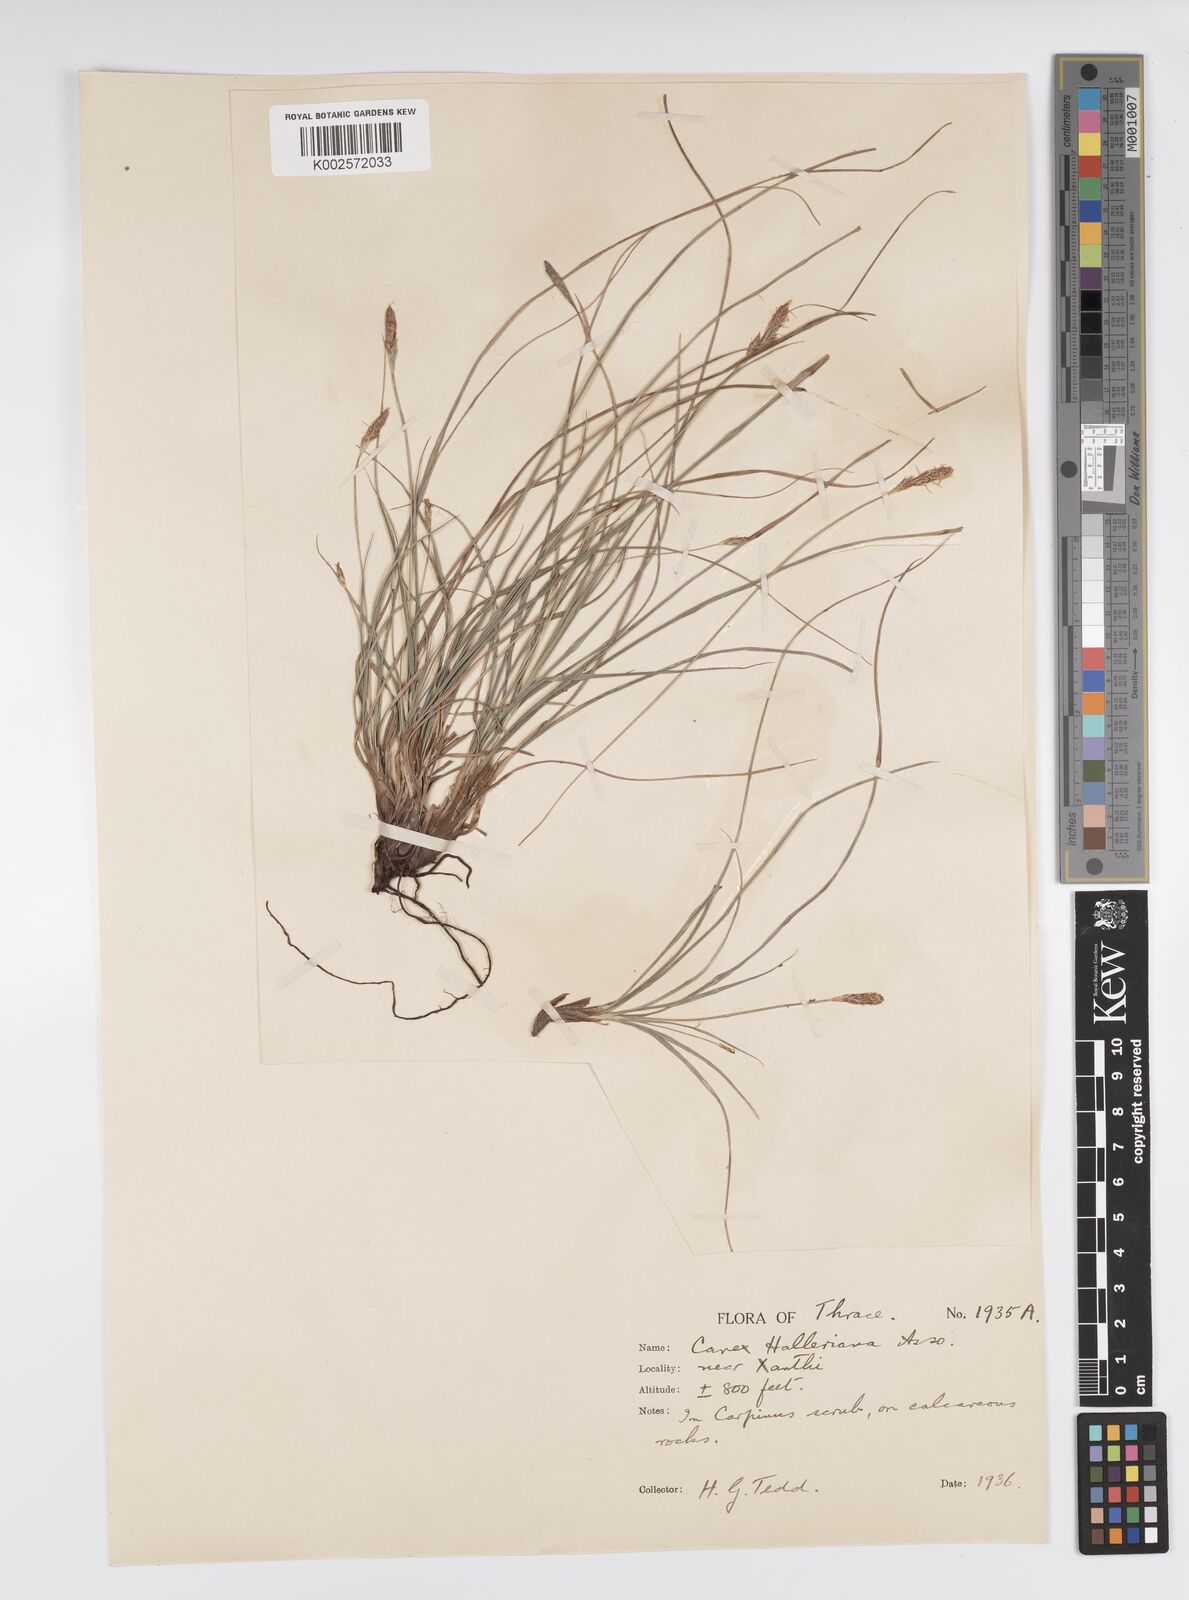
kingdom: Plantae
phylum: Tracheophyta
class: Liliopsida
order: Poales
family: Cyperaceae
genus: Carex
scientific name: Carex halleriana
